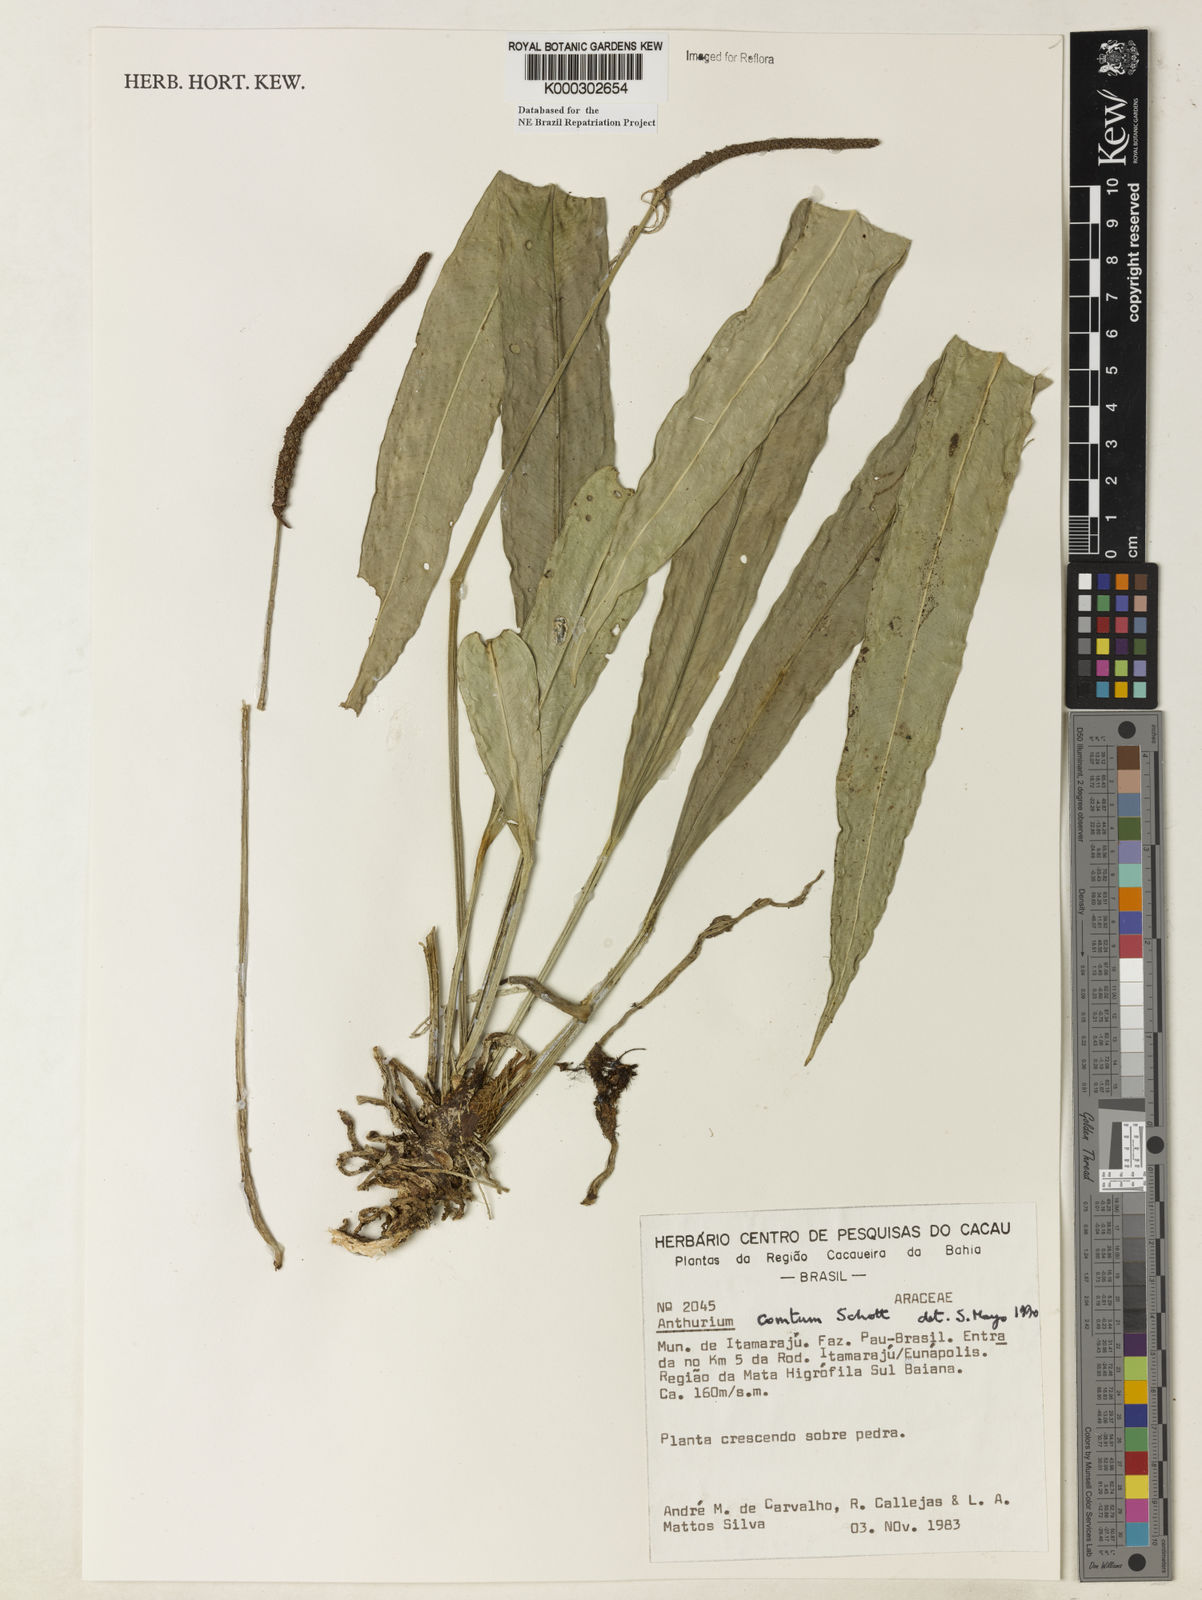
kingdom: Plantae
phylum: Tracheophyta
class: Liliopsida
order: Alismatales
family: Araceae
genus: Anthurium
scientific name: Anthurium comtum
